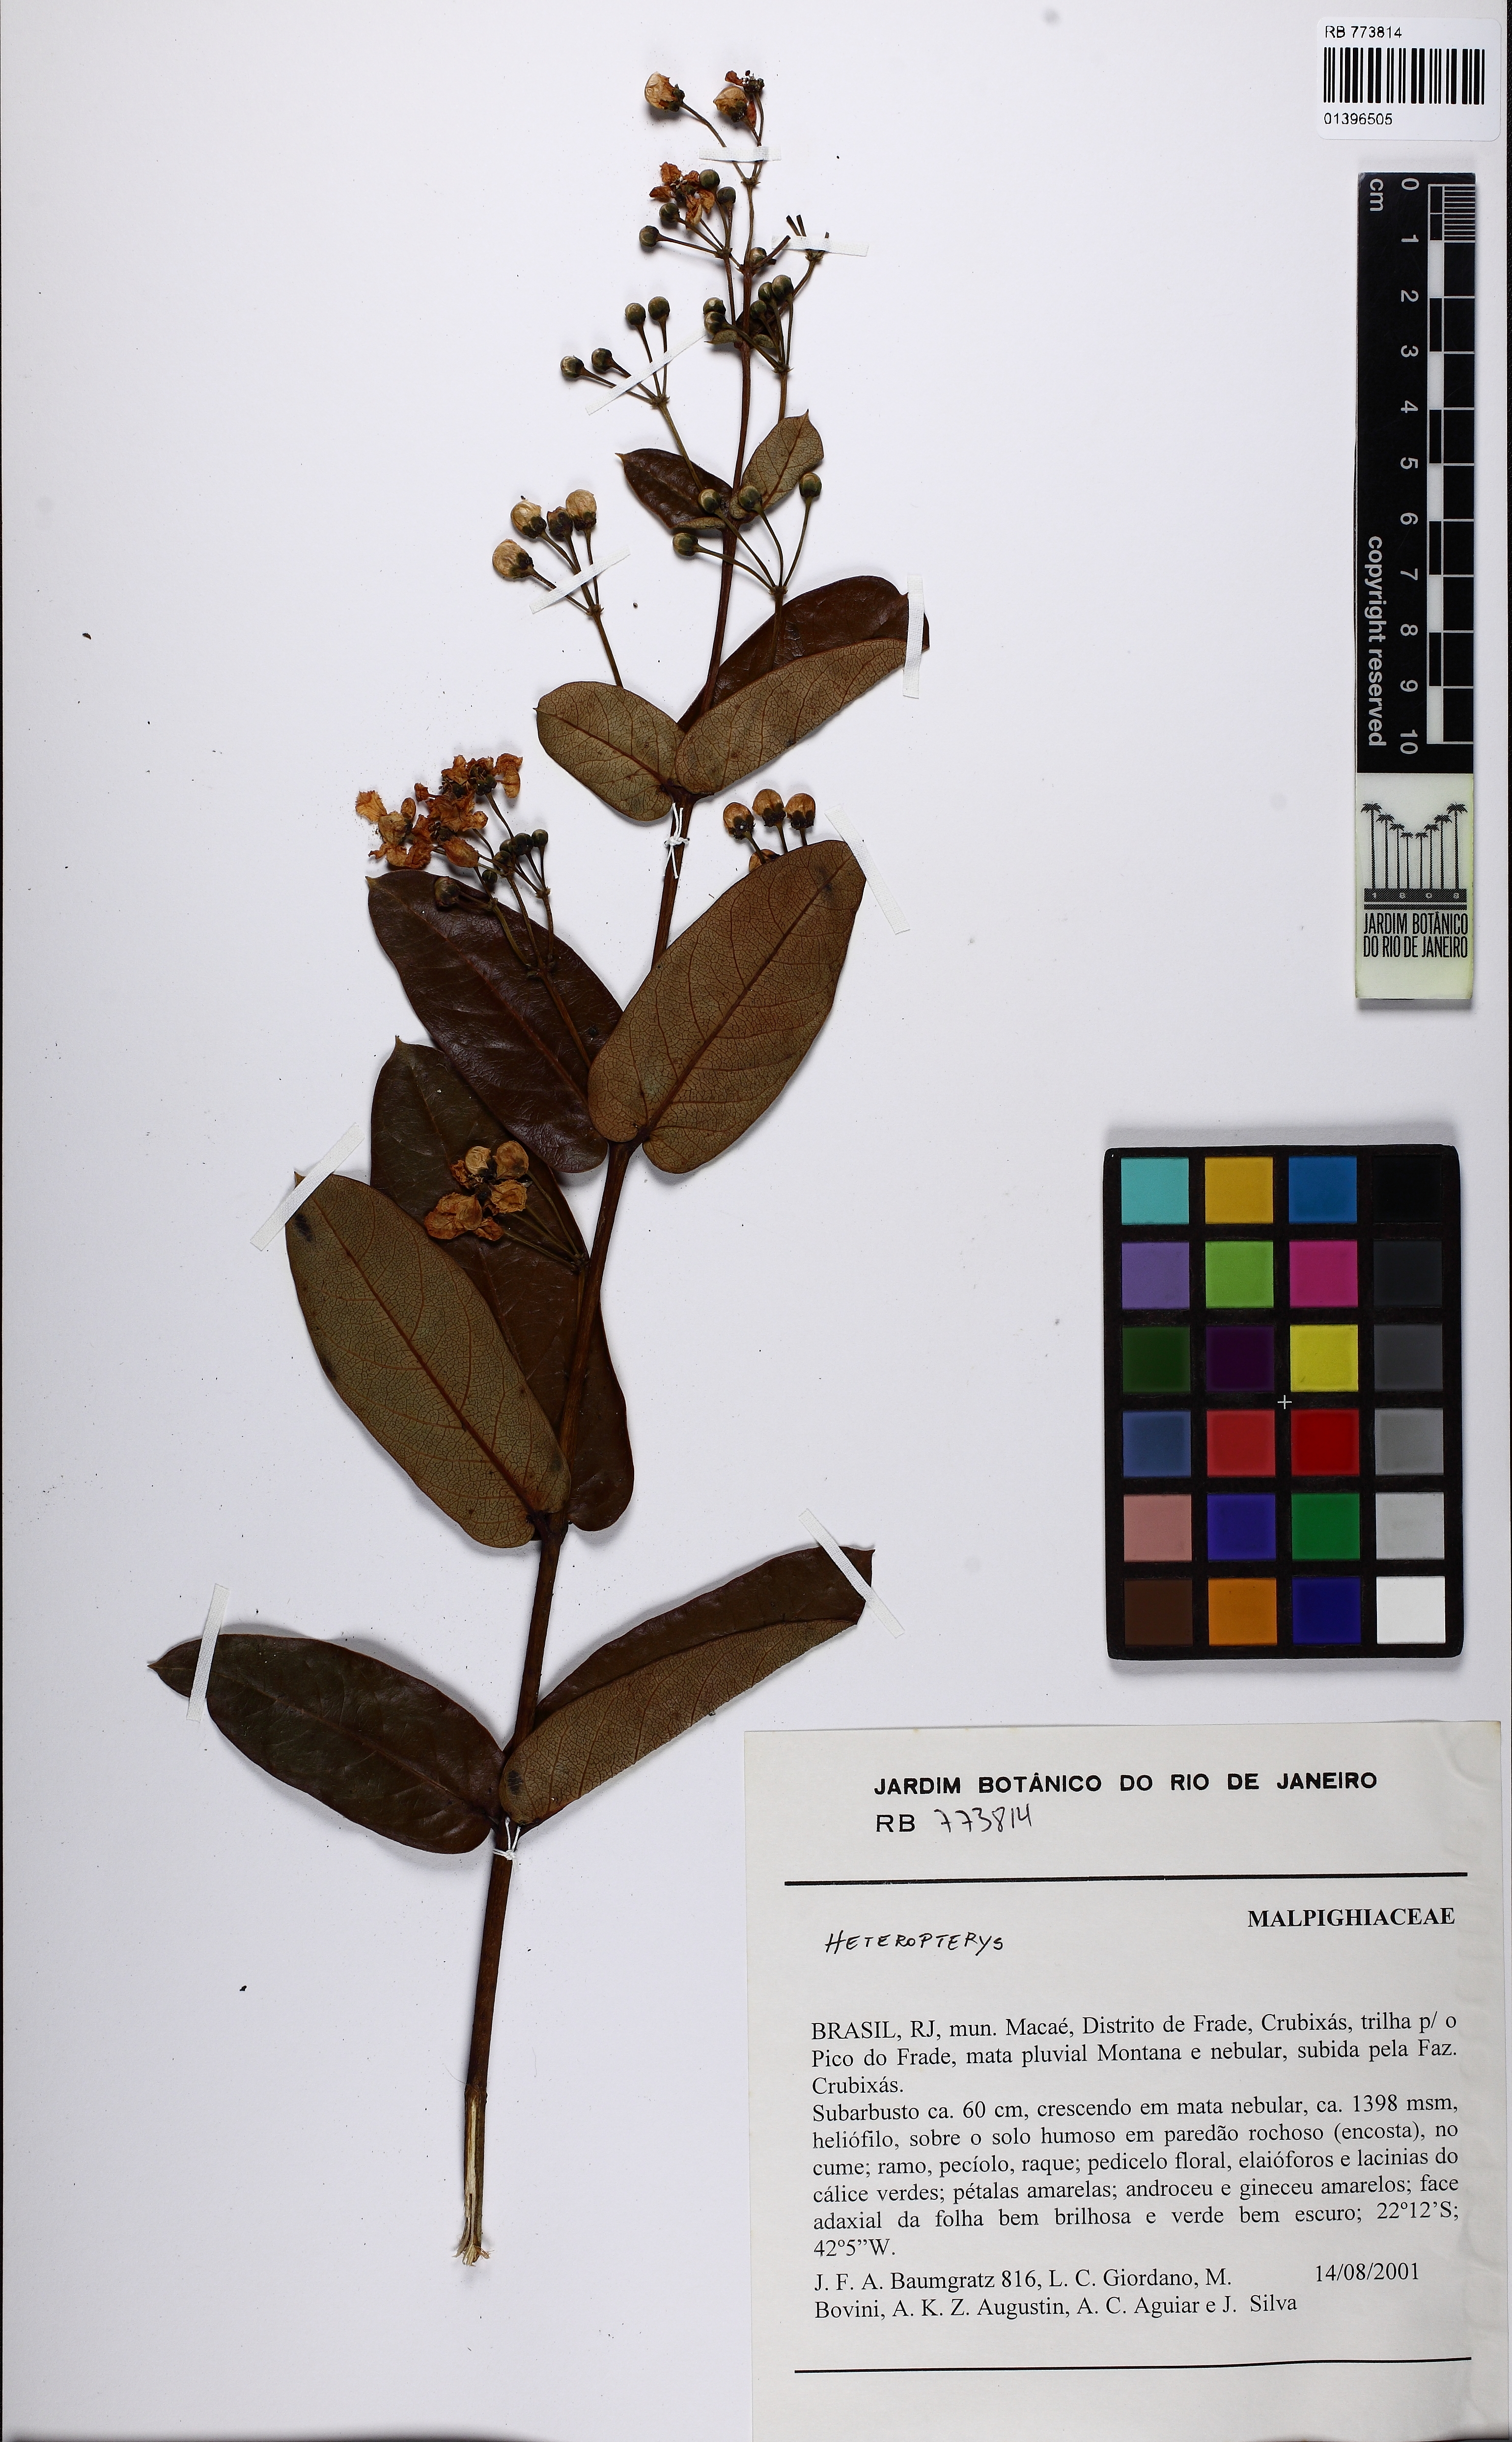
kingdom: Plantae
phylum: Tracheophyta
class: Magnoliopsida
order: Malpighiales
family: Malpighiaceae
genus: Banisteriopsis
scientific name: Banisteriopsis
